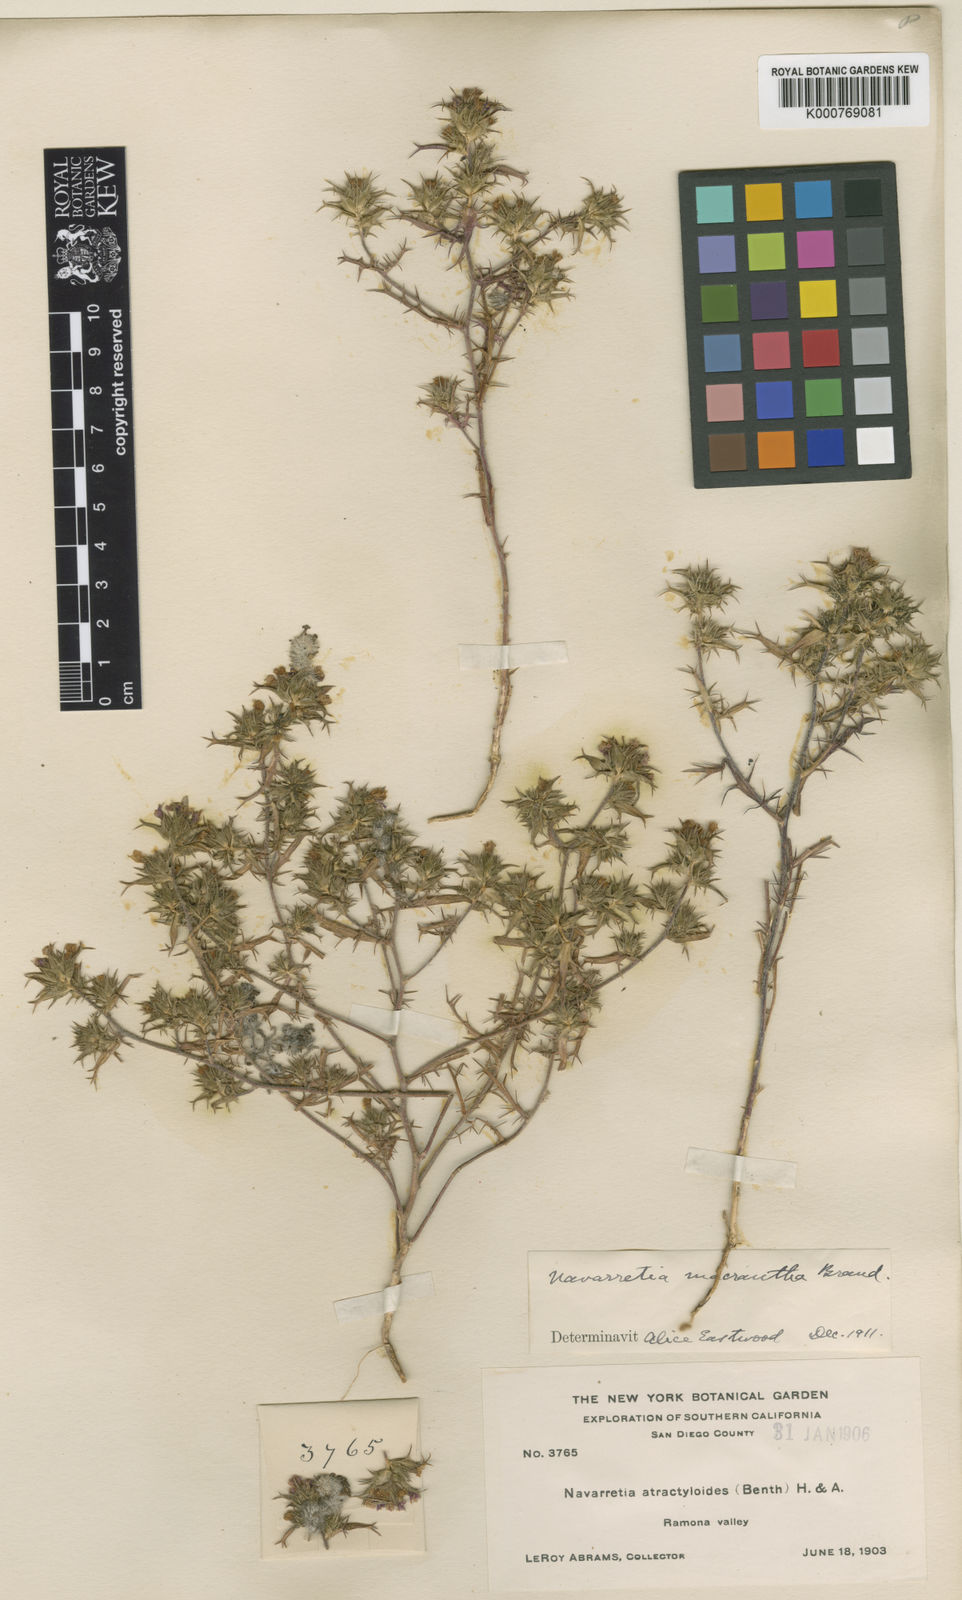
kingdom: Plantae
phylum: Tracheophyta
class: Magnoliopsida
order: Ericales
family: Polemoniaceae
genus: Navarretia
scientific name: Navarretia atractyloides
